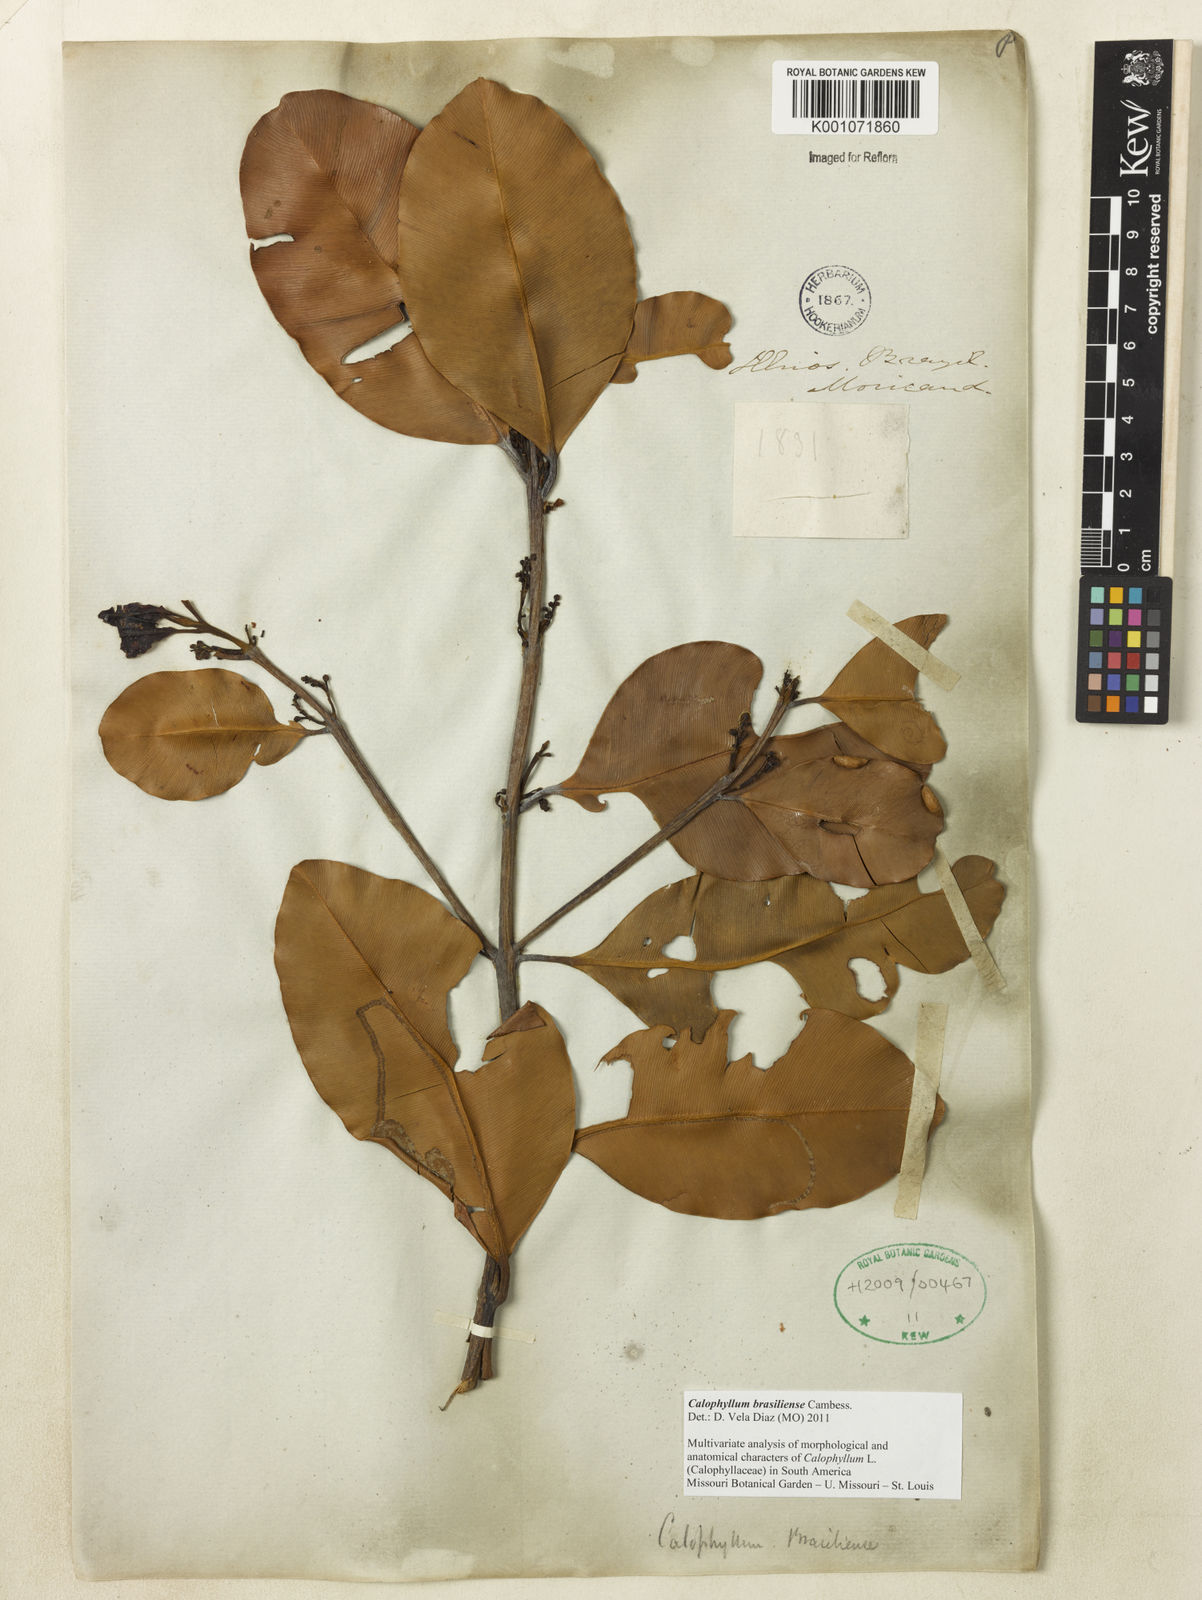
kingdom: Plantae
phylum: Tracheophyta
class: Magnoliopsida
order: Malpighiales
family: Calophyllaceae
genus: Calophyllum
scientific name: Calophyllum brasiliense
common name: Santa maria
